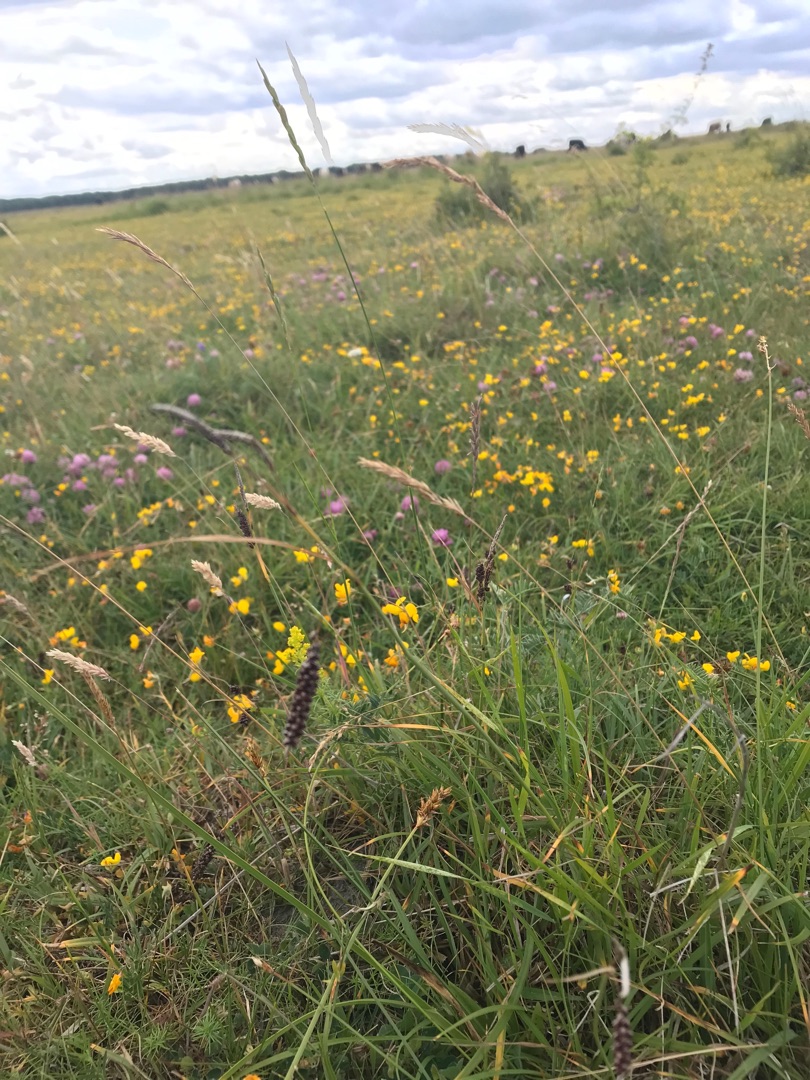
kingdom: Plantae
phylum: Tracheophyta
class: Liliopsida
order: Poales
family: Cyperaceae
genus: Carex
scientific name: Carex flacca
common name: Blågrøn star
